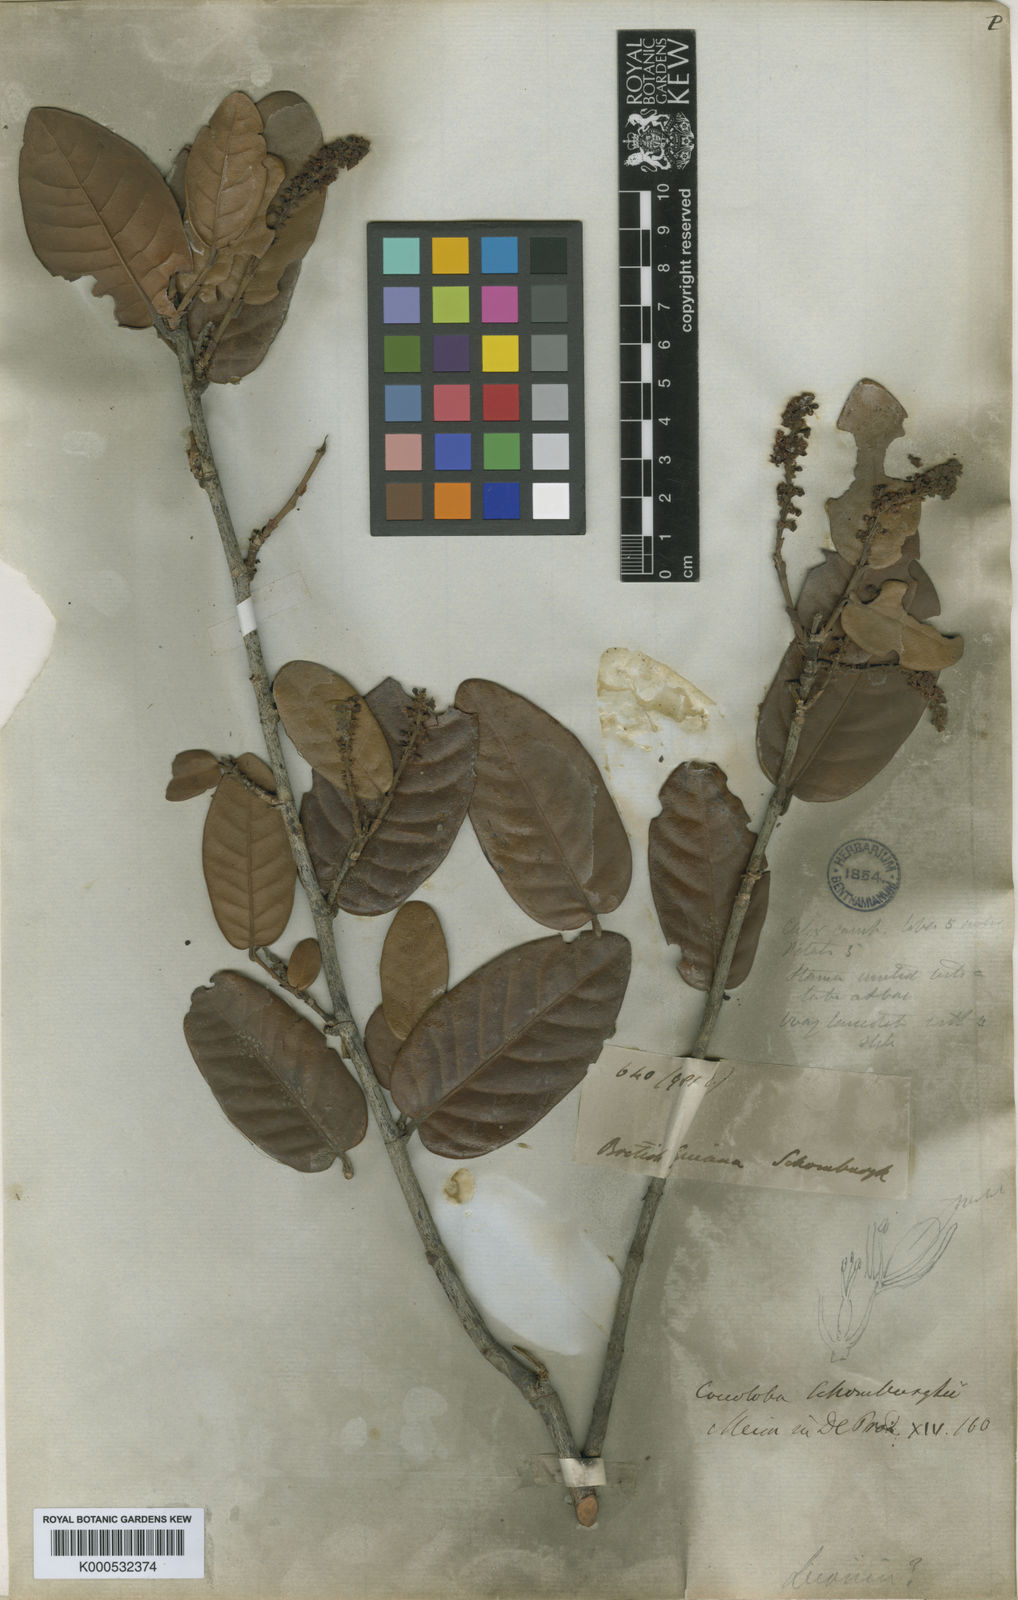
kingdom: Plantae
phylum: Tracheophyta
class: Magnoliopsida
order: Caryophyllales
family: Polygonaceae
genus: Coccoloba
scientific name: Coccoloba schomburgkii
